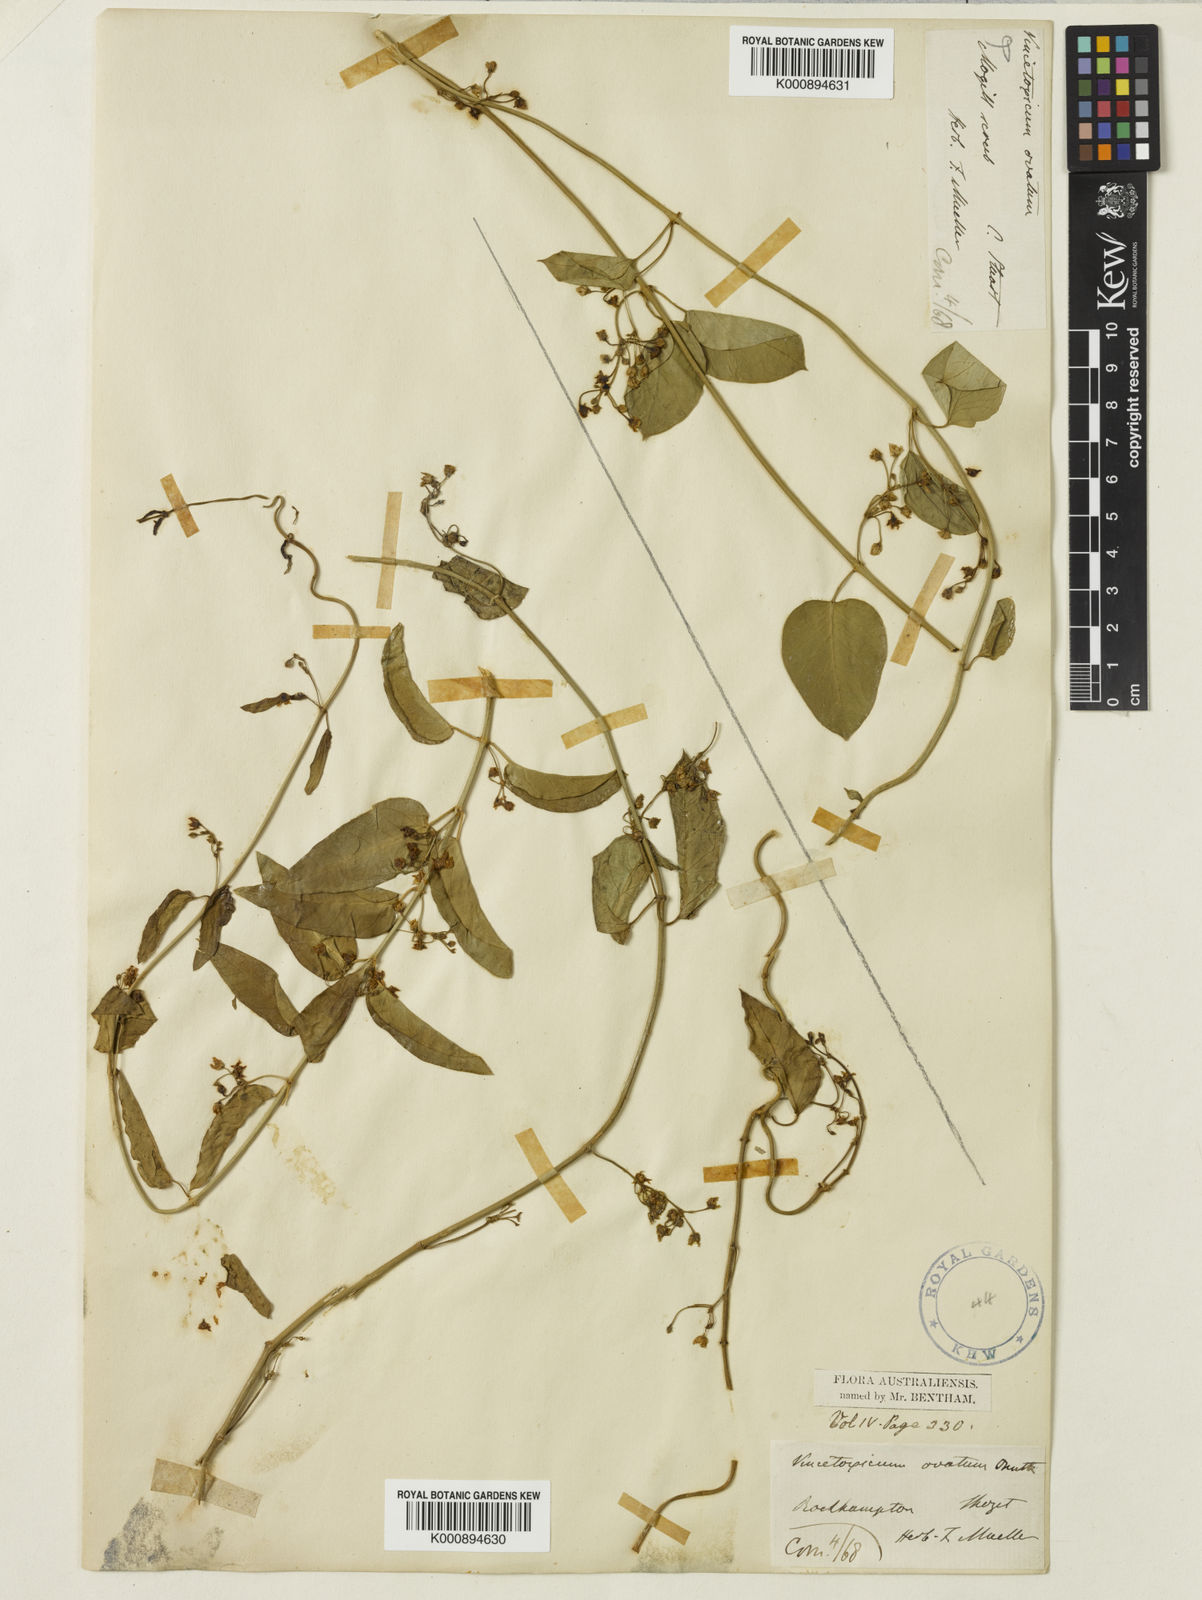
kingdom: Plantae
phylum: Tracheophyta
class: Magnoliopsida
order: Gentianales
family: Apocynaceae
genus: Vincetoxicum
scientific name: Vincetoxicum ovatum
